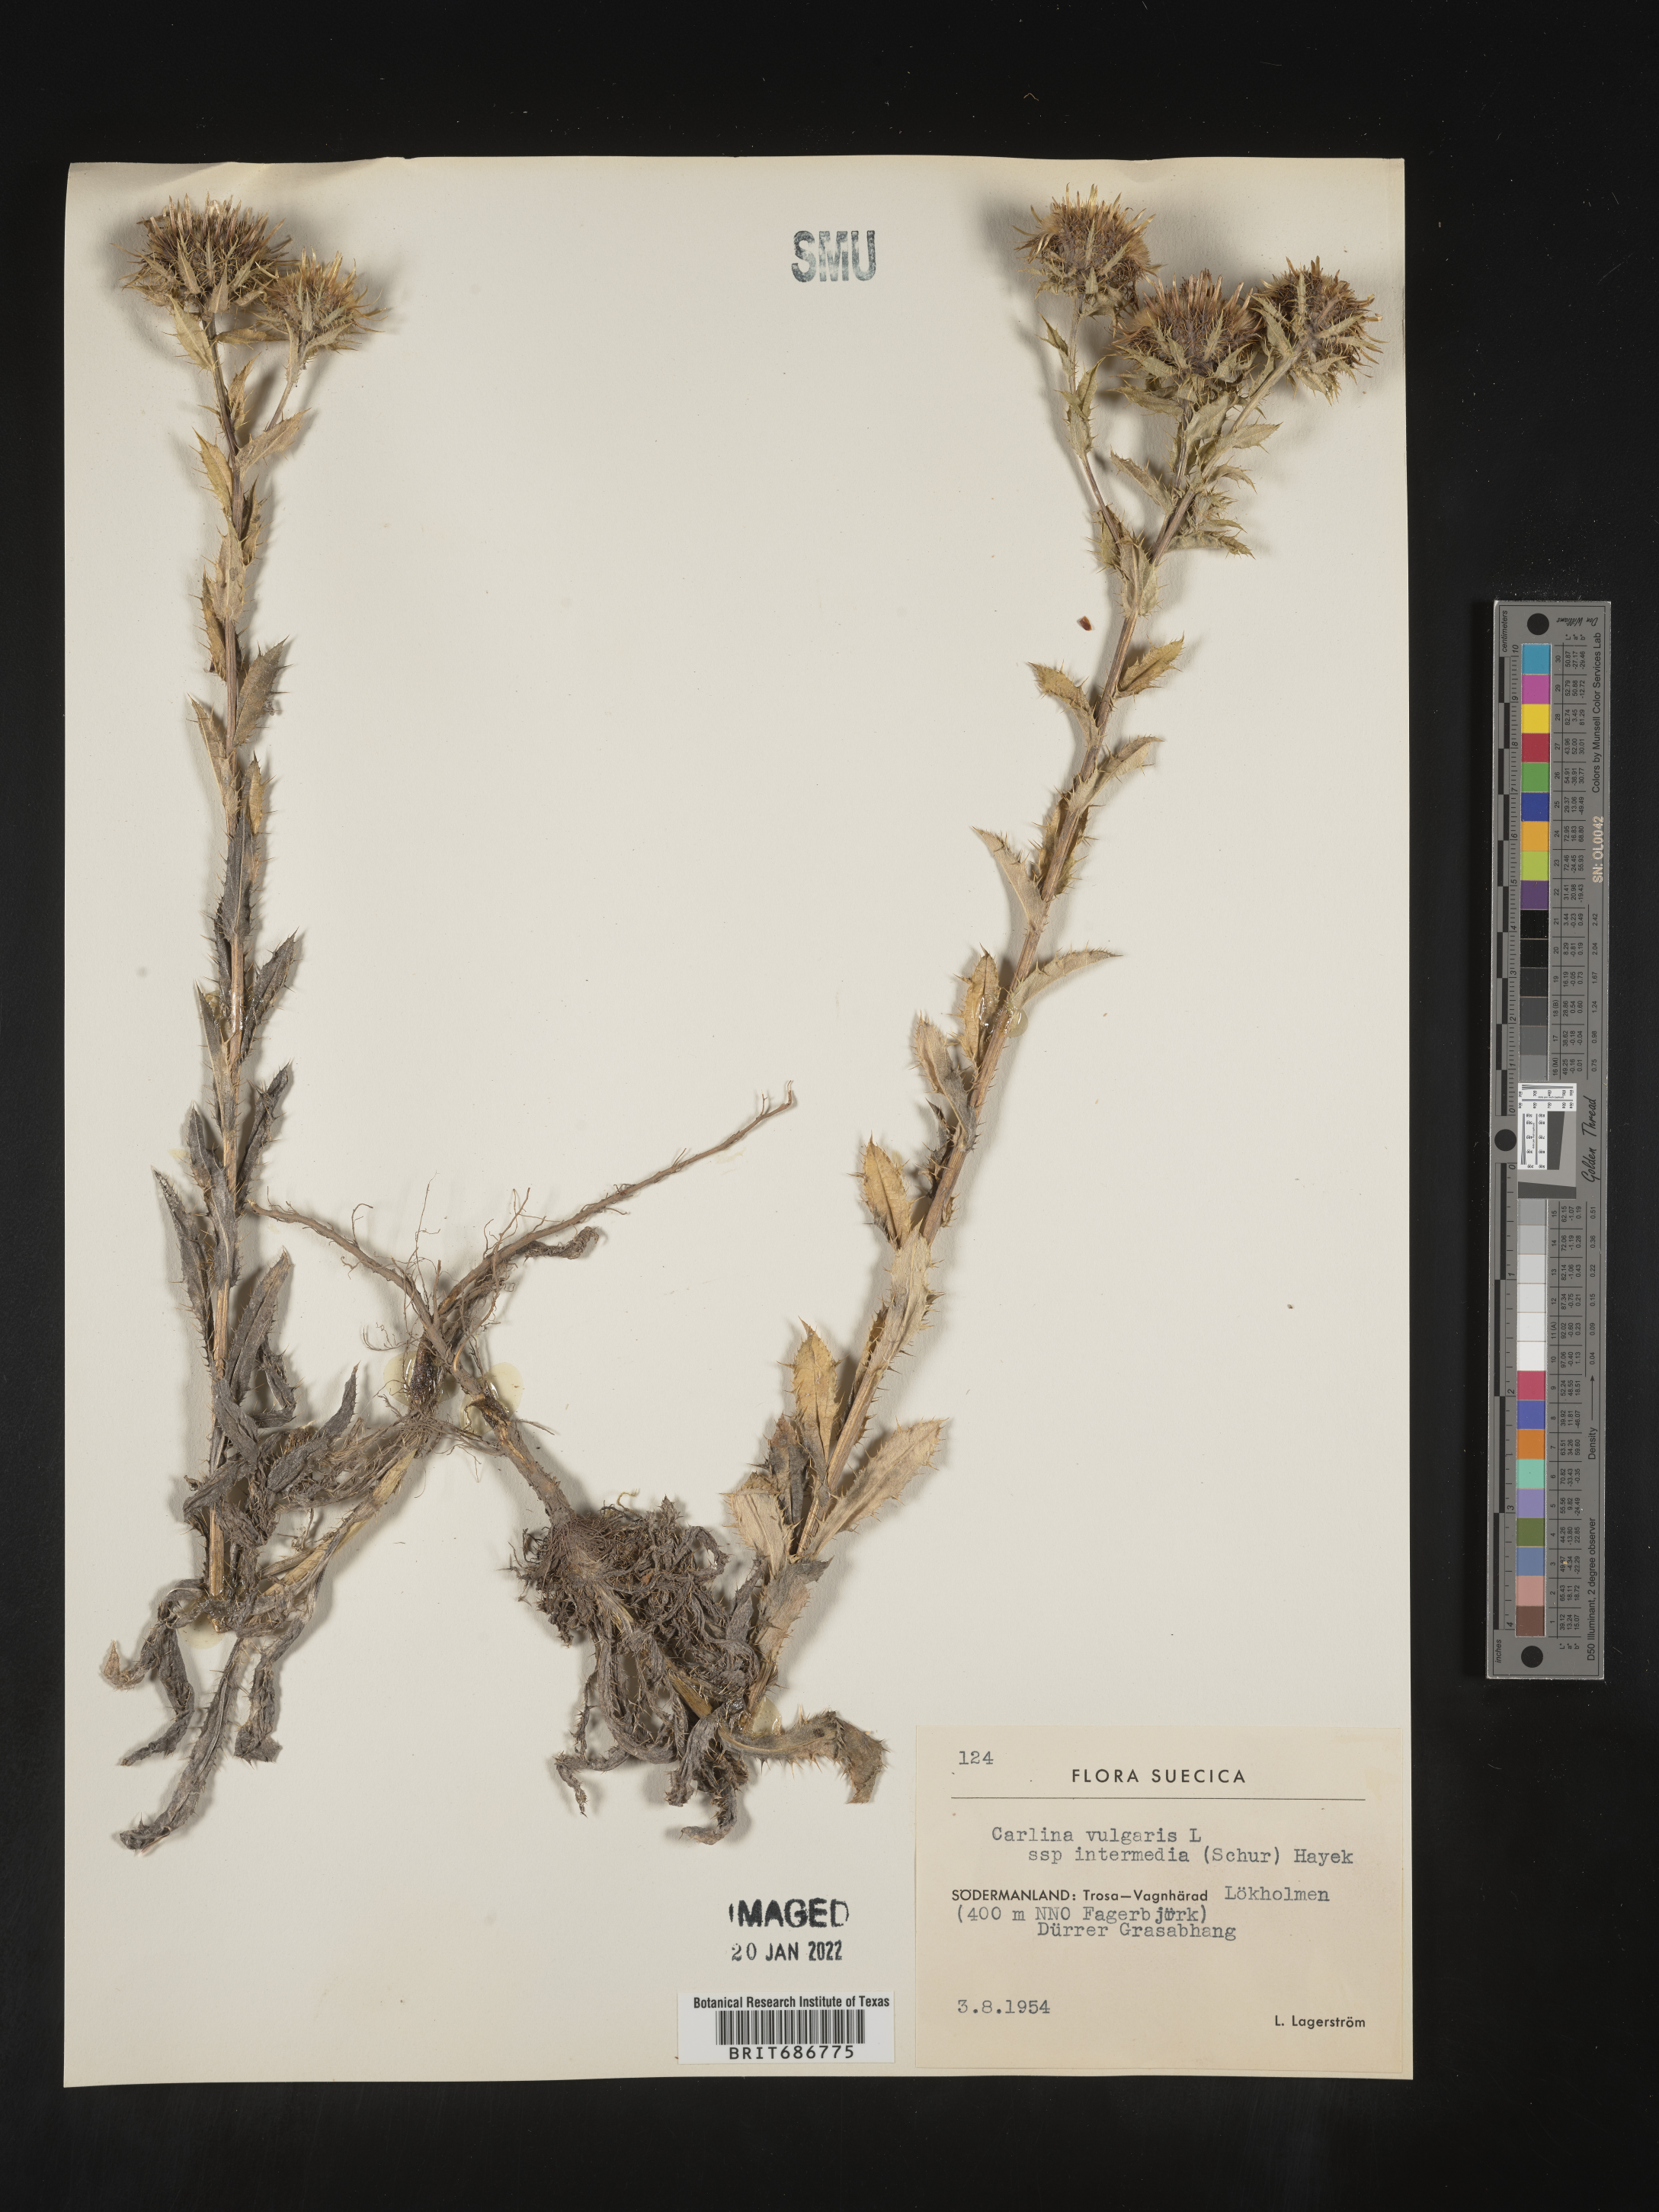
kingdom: Plantae
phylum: Tracheophyta
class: Magnoliopsida
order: Asterales
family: Asteraceae
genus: Carlina
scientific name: Carlina
